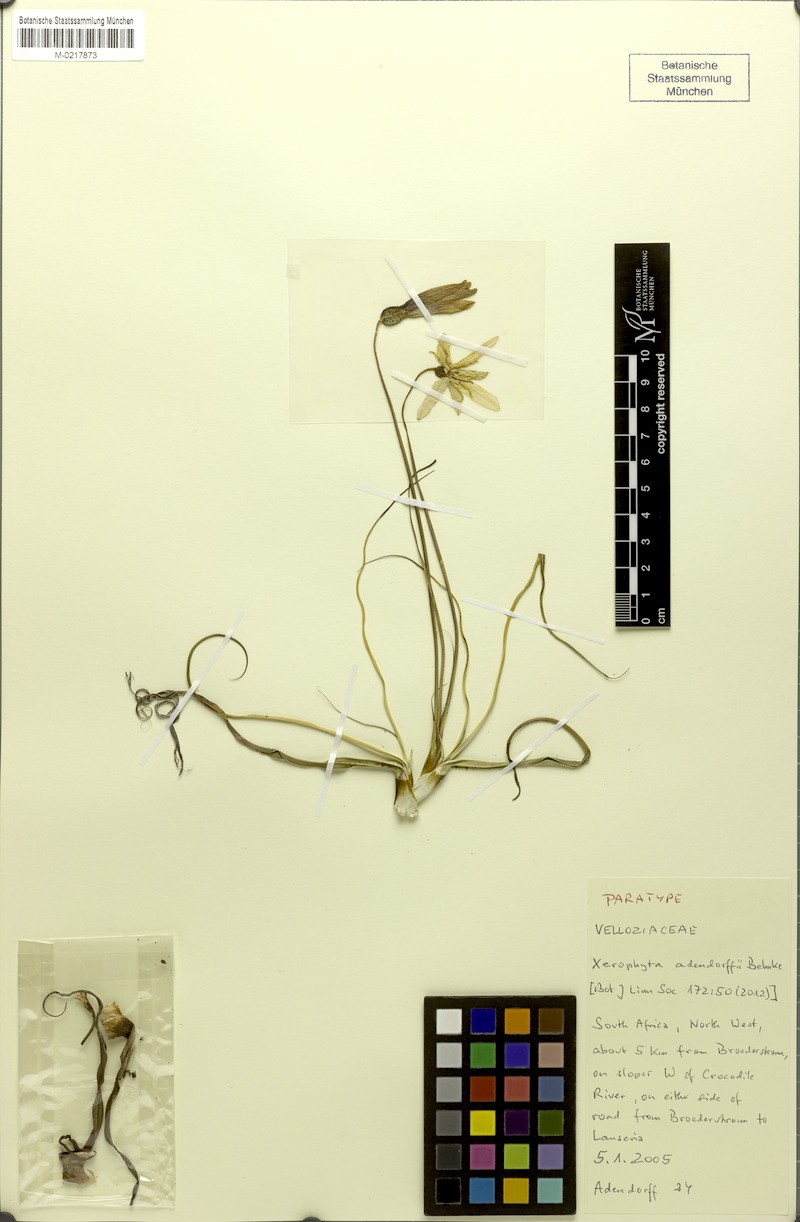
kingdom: Plantae
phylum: Tracheophyta
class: Liliopsida
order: Pandanales
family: Velloziaceae
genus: Xerophyta
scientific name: Xerophyta adendorffii
